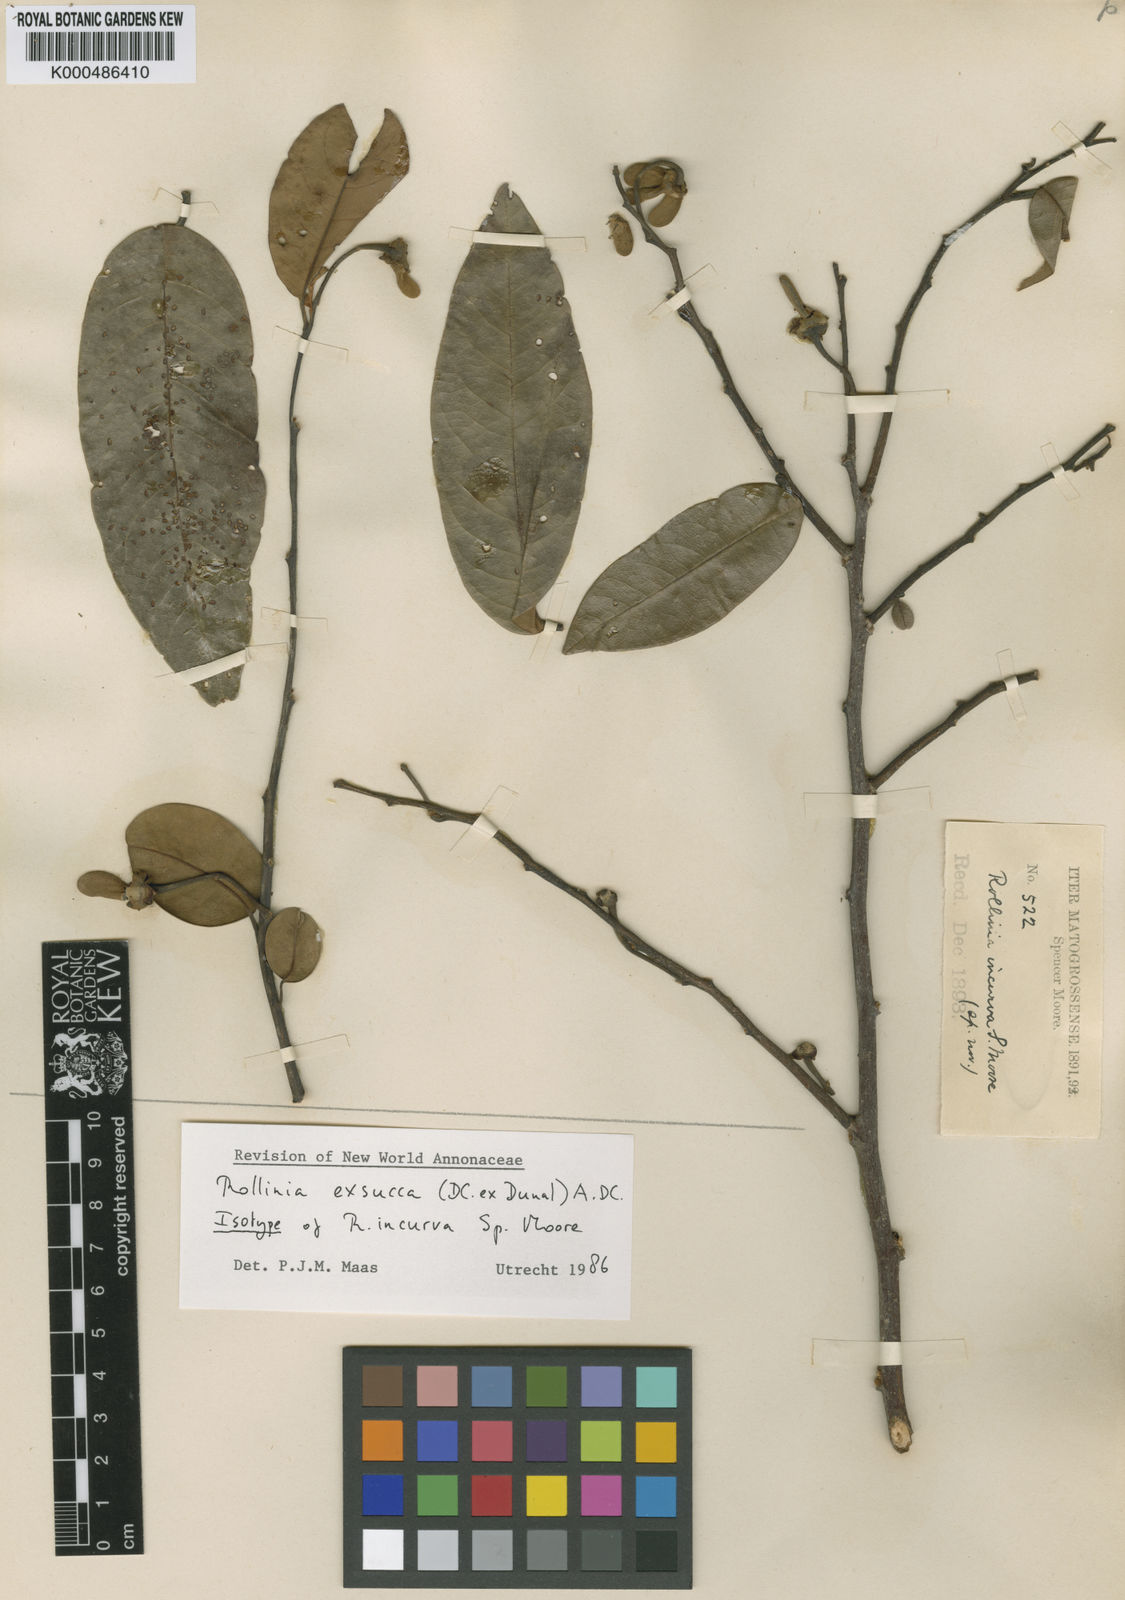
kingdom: Plantae
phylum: Tracheophyta
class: Magnoliopsida
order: Magnoliales
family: Annonaceae
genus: Annona
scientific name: Annona
